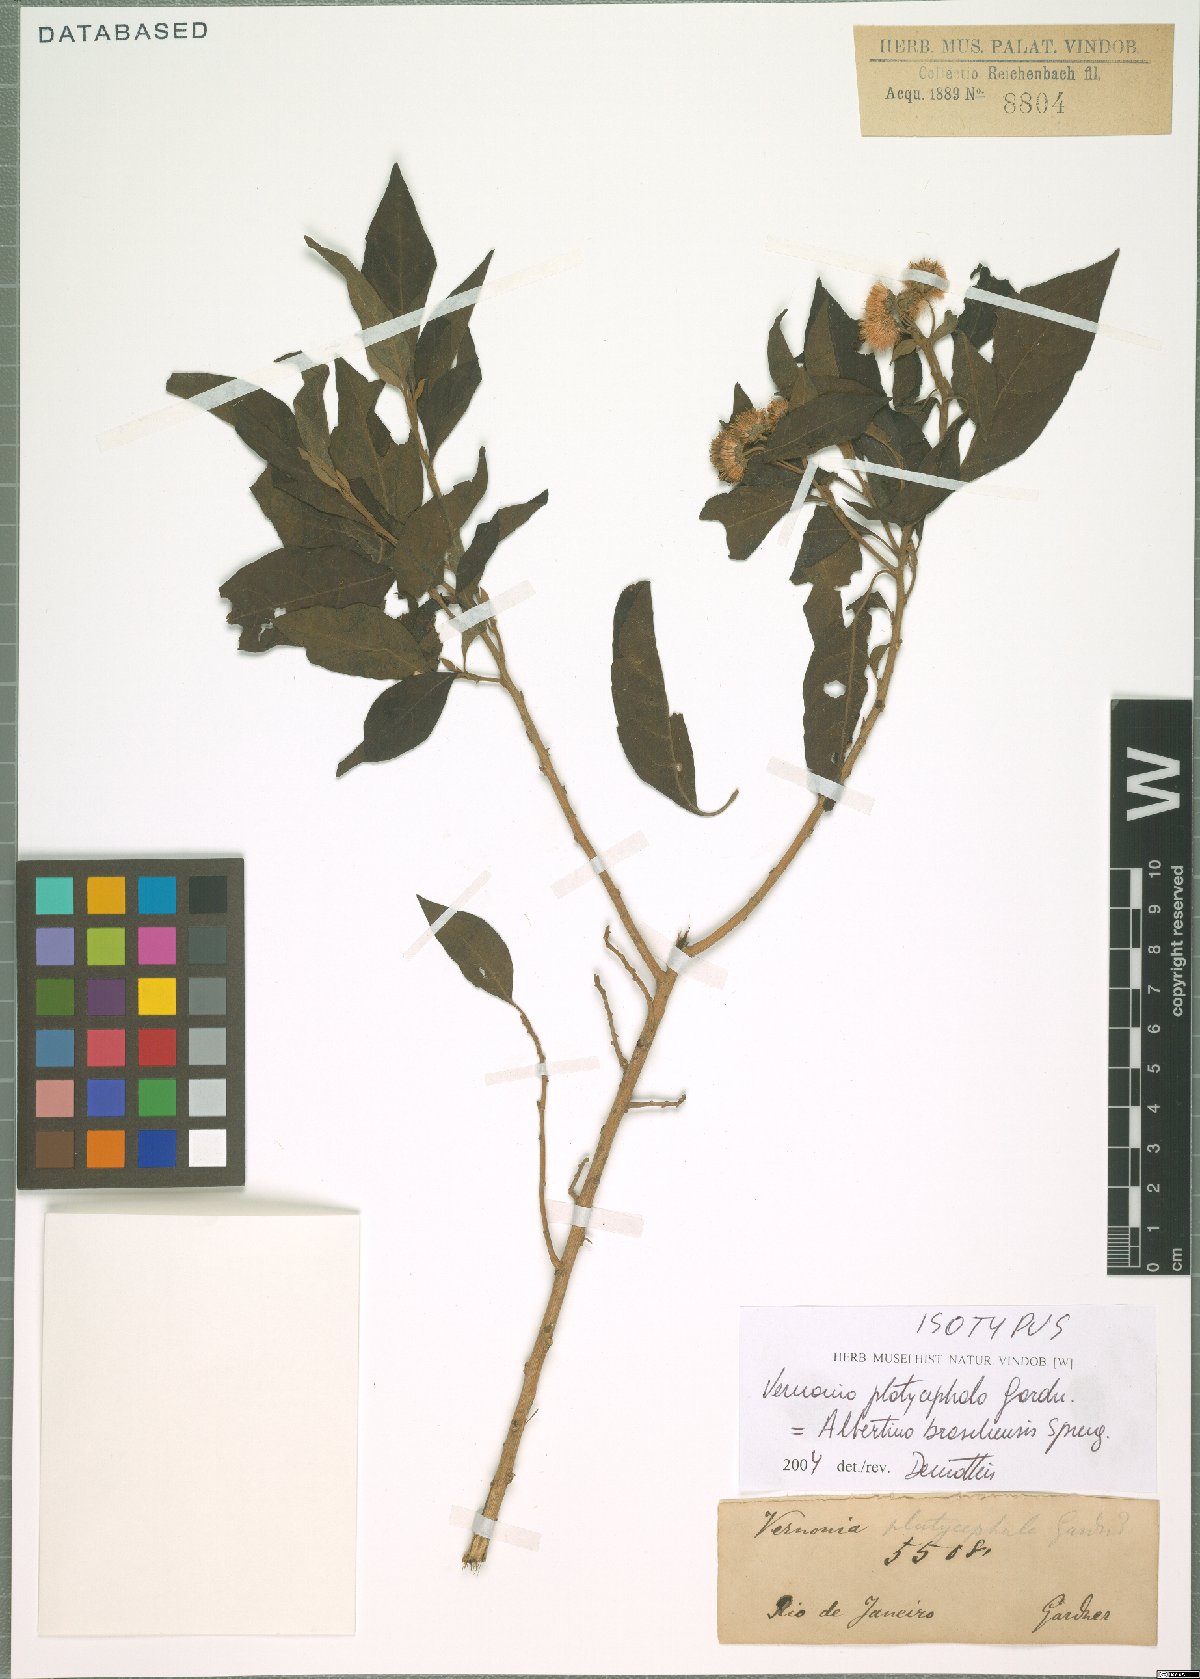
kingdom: Plantae
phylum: Tracheophyta
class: Magnoliopsida
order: Asterales
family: Asteraceae
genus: Albertinia
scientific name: Albertinia brasiliensis
